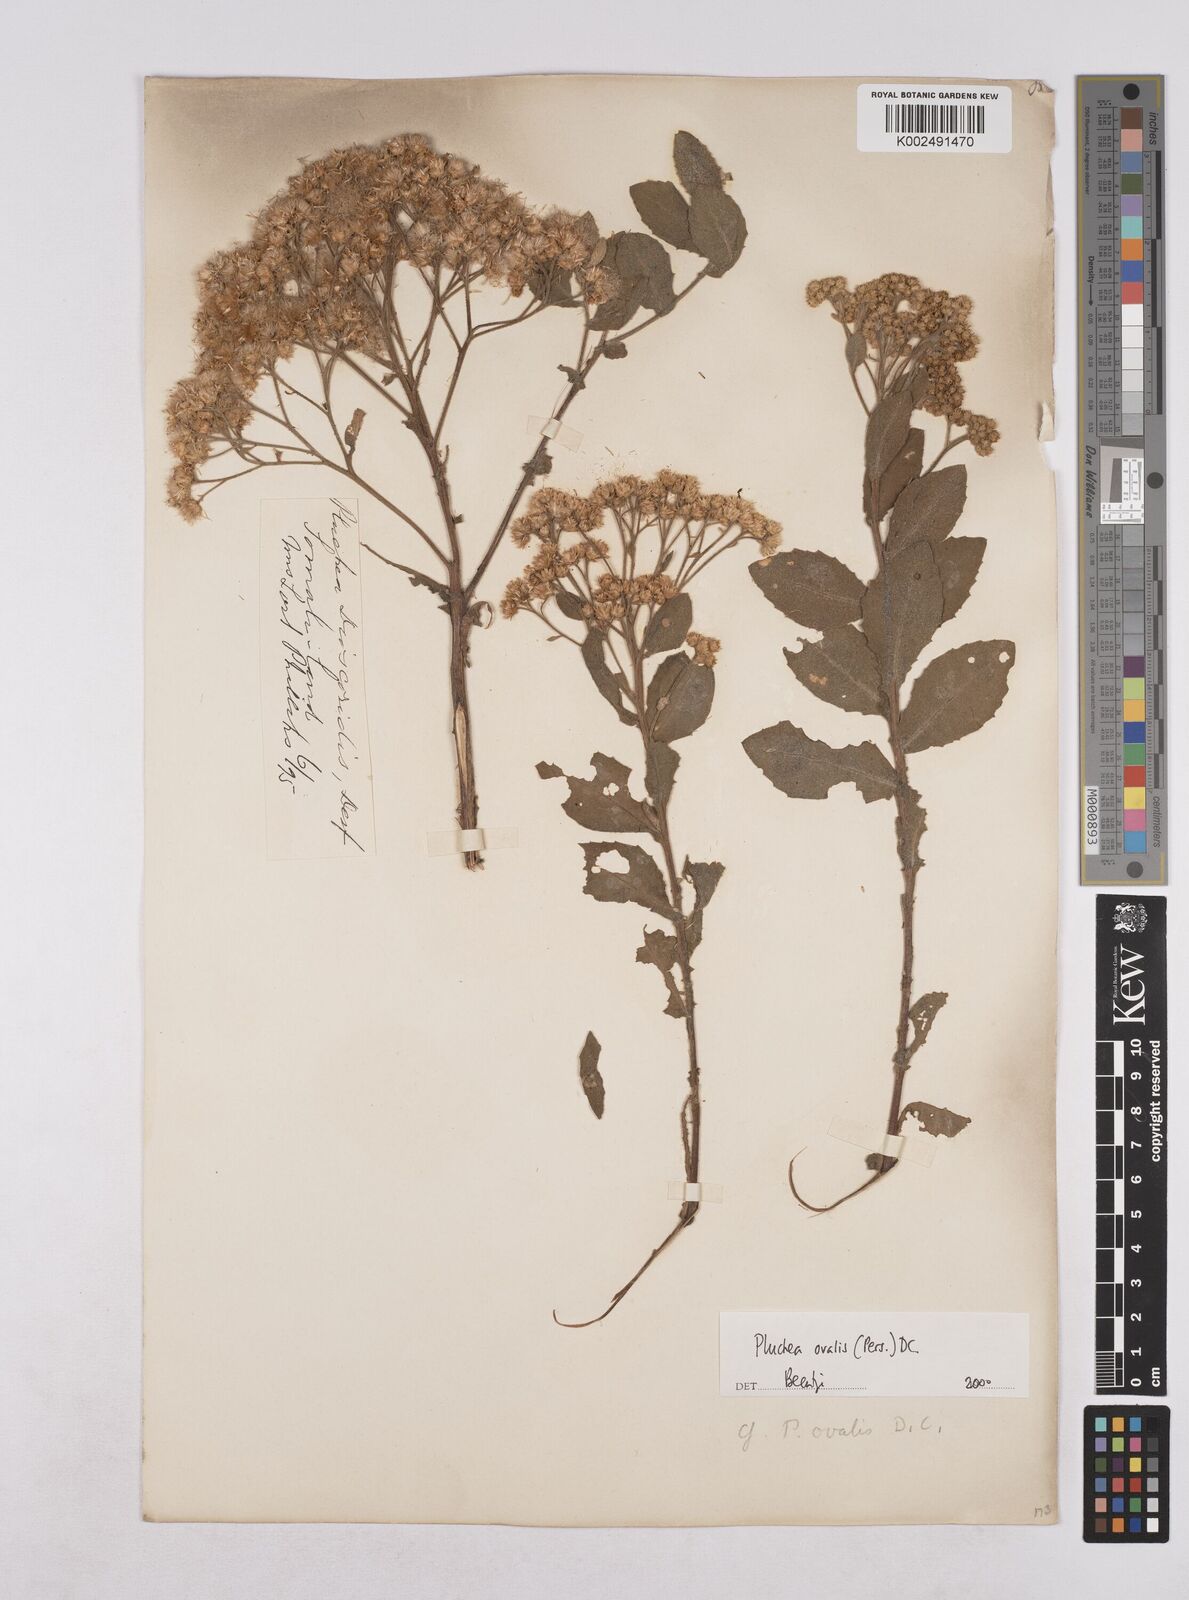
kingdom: Plantae
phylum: Tracheophyta
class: Magnoliopsida
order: Asterales
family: Asteraceae
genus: Pluchea
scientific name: Pluchea ovalis
